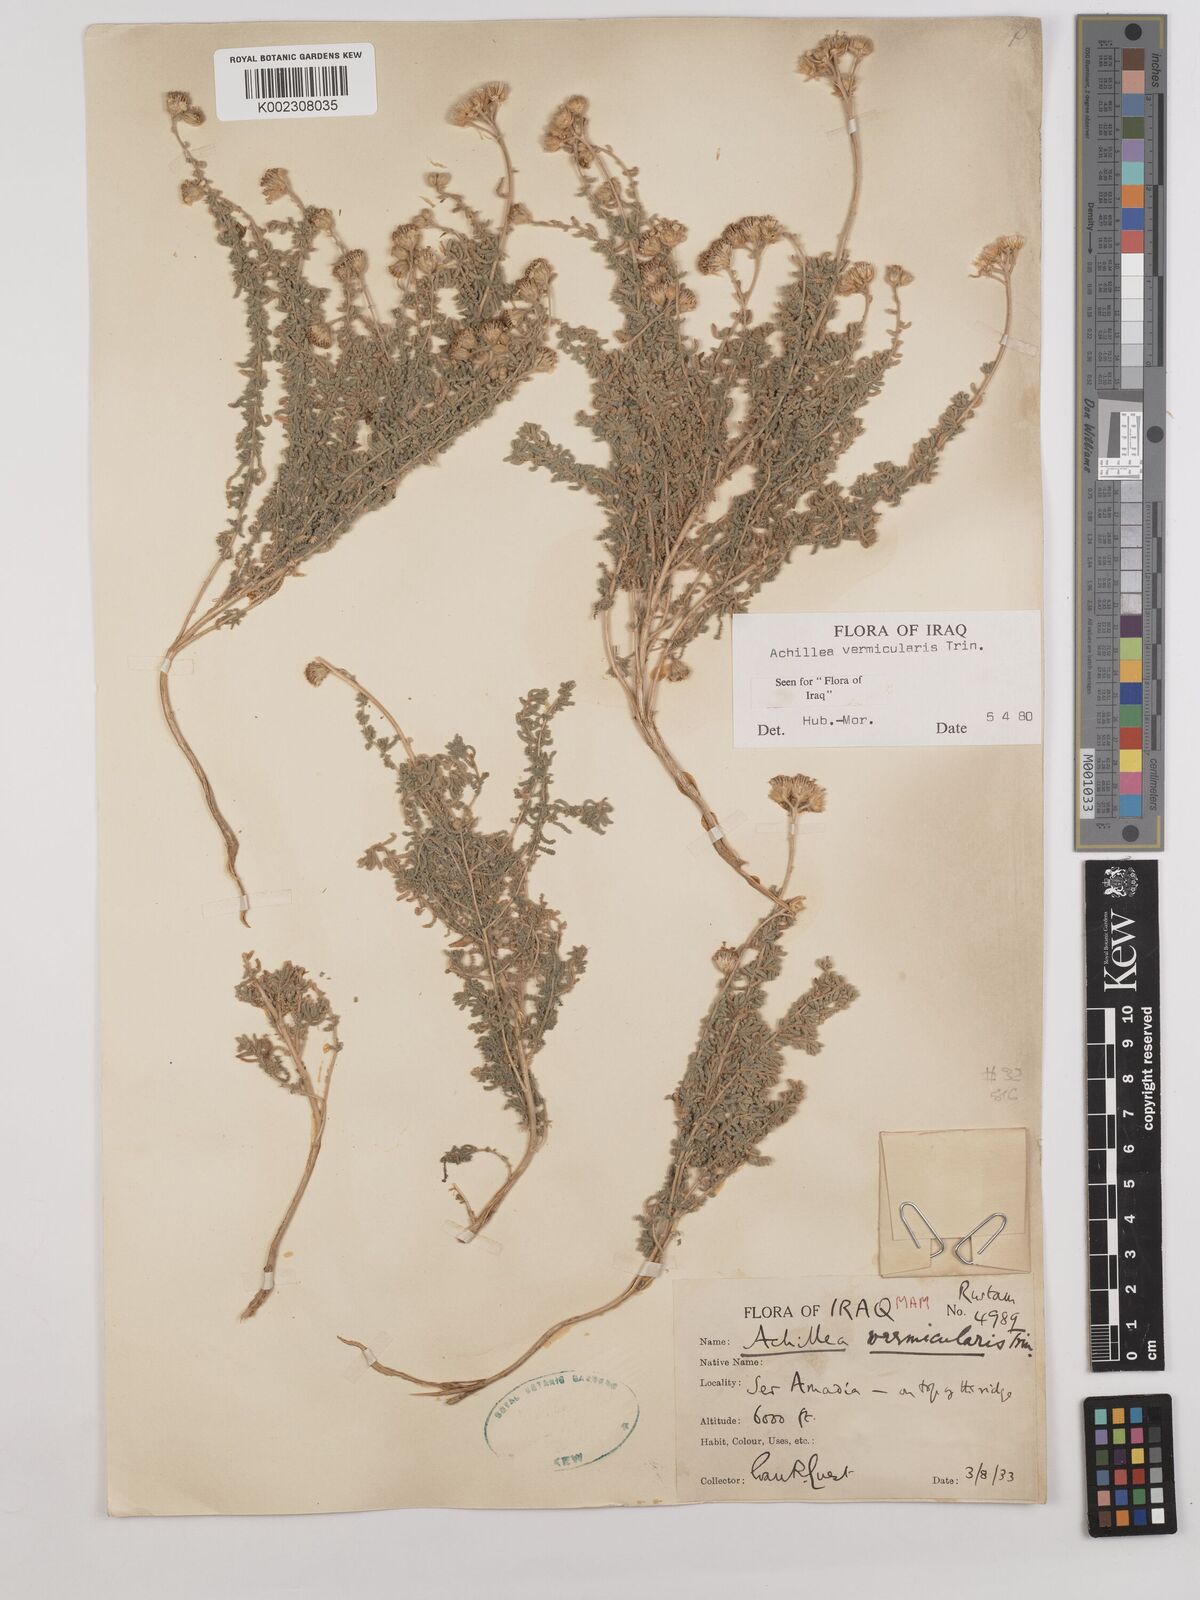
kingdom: Plantae
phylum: Tracheophyta
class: Magnoliopsida
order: Asterales
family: Asteraceae
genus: Achillea
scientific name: Achillea vermicularis
